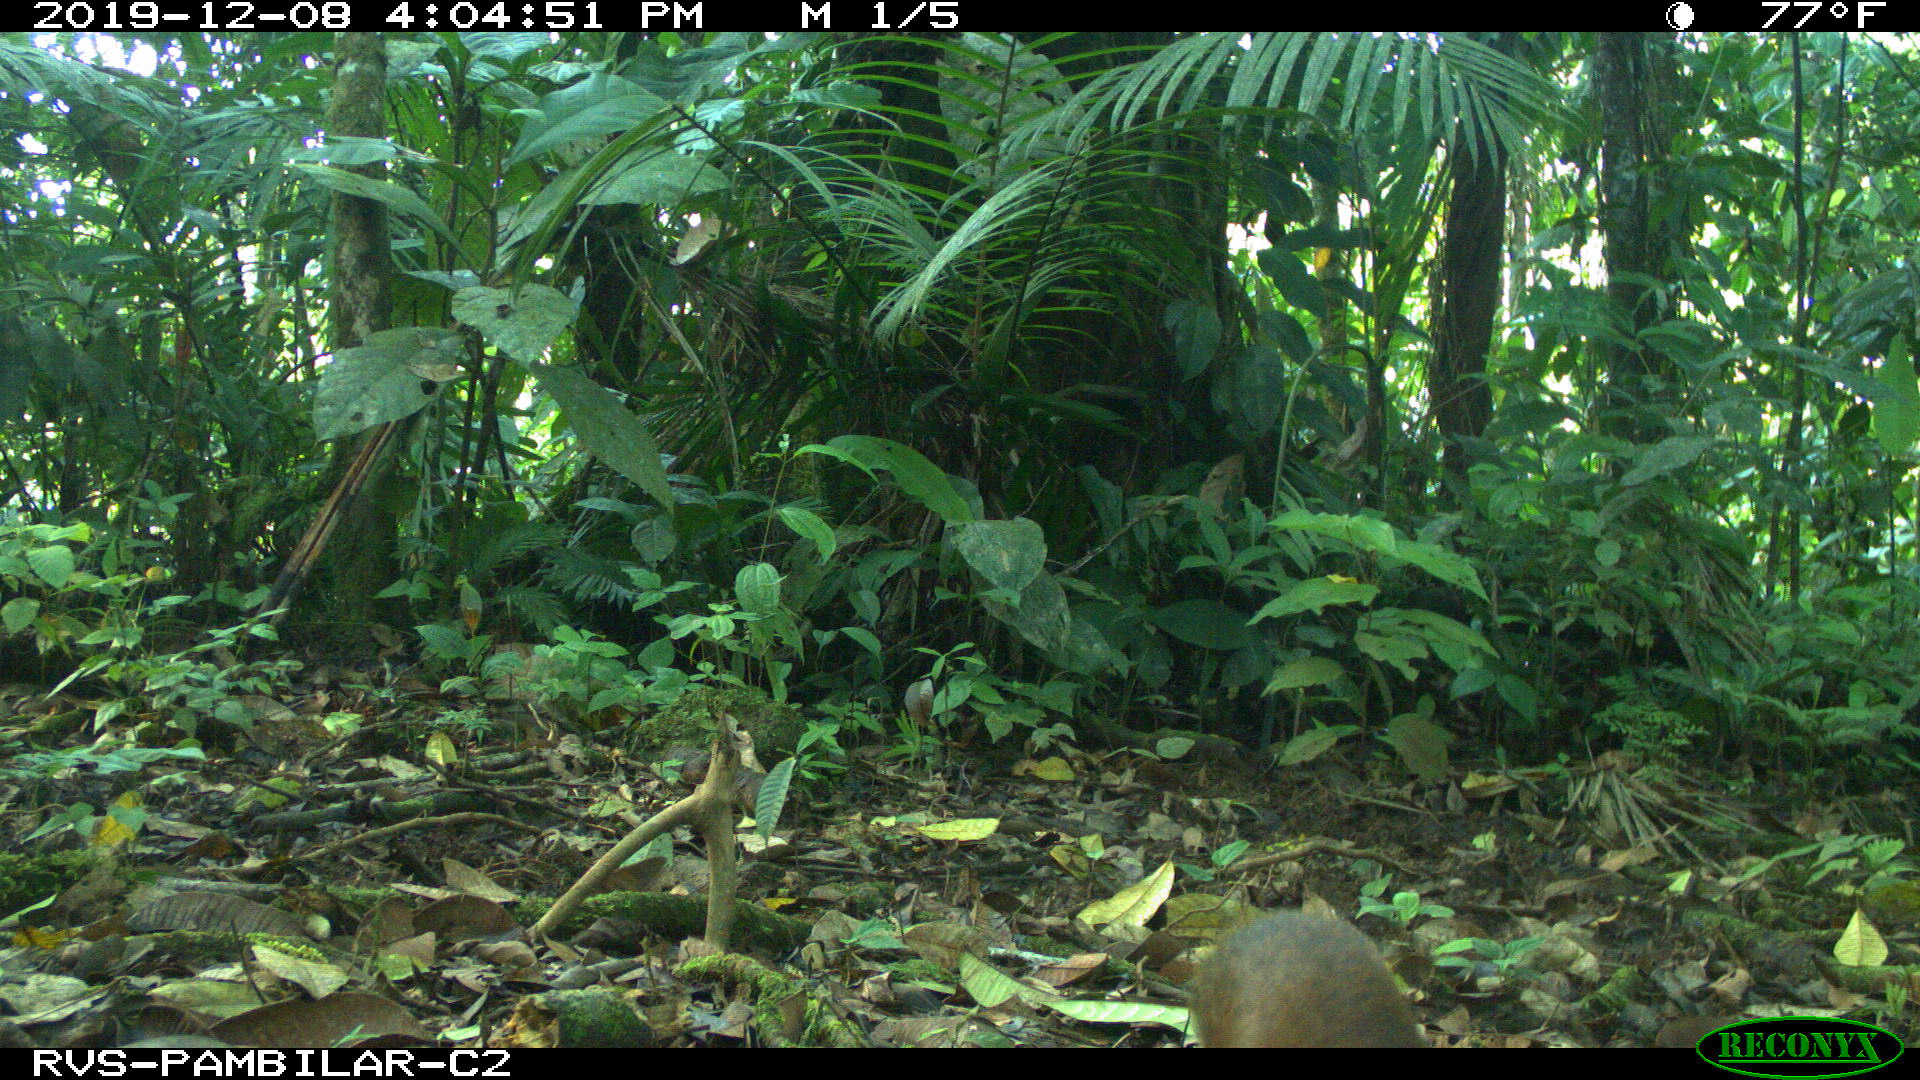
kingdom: Animalia
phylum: Chordata
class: Mammalia
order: Rodentia
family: Dasyproctidae
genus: Dasyprocta
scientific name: Dasyprocta punctata
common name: Central american agouti
